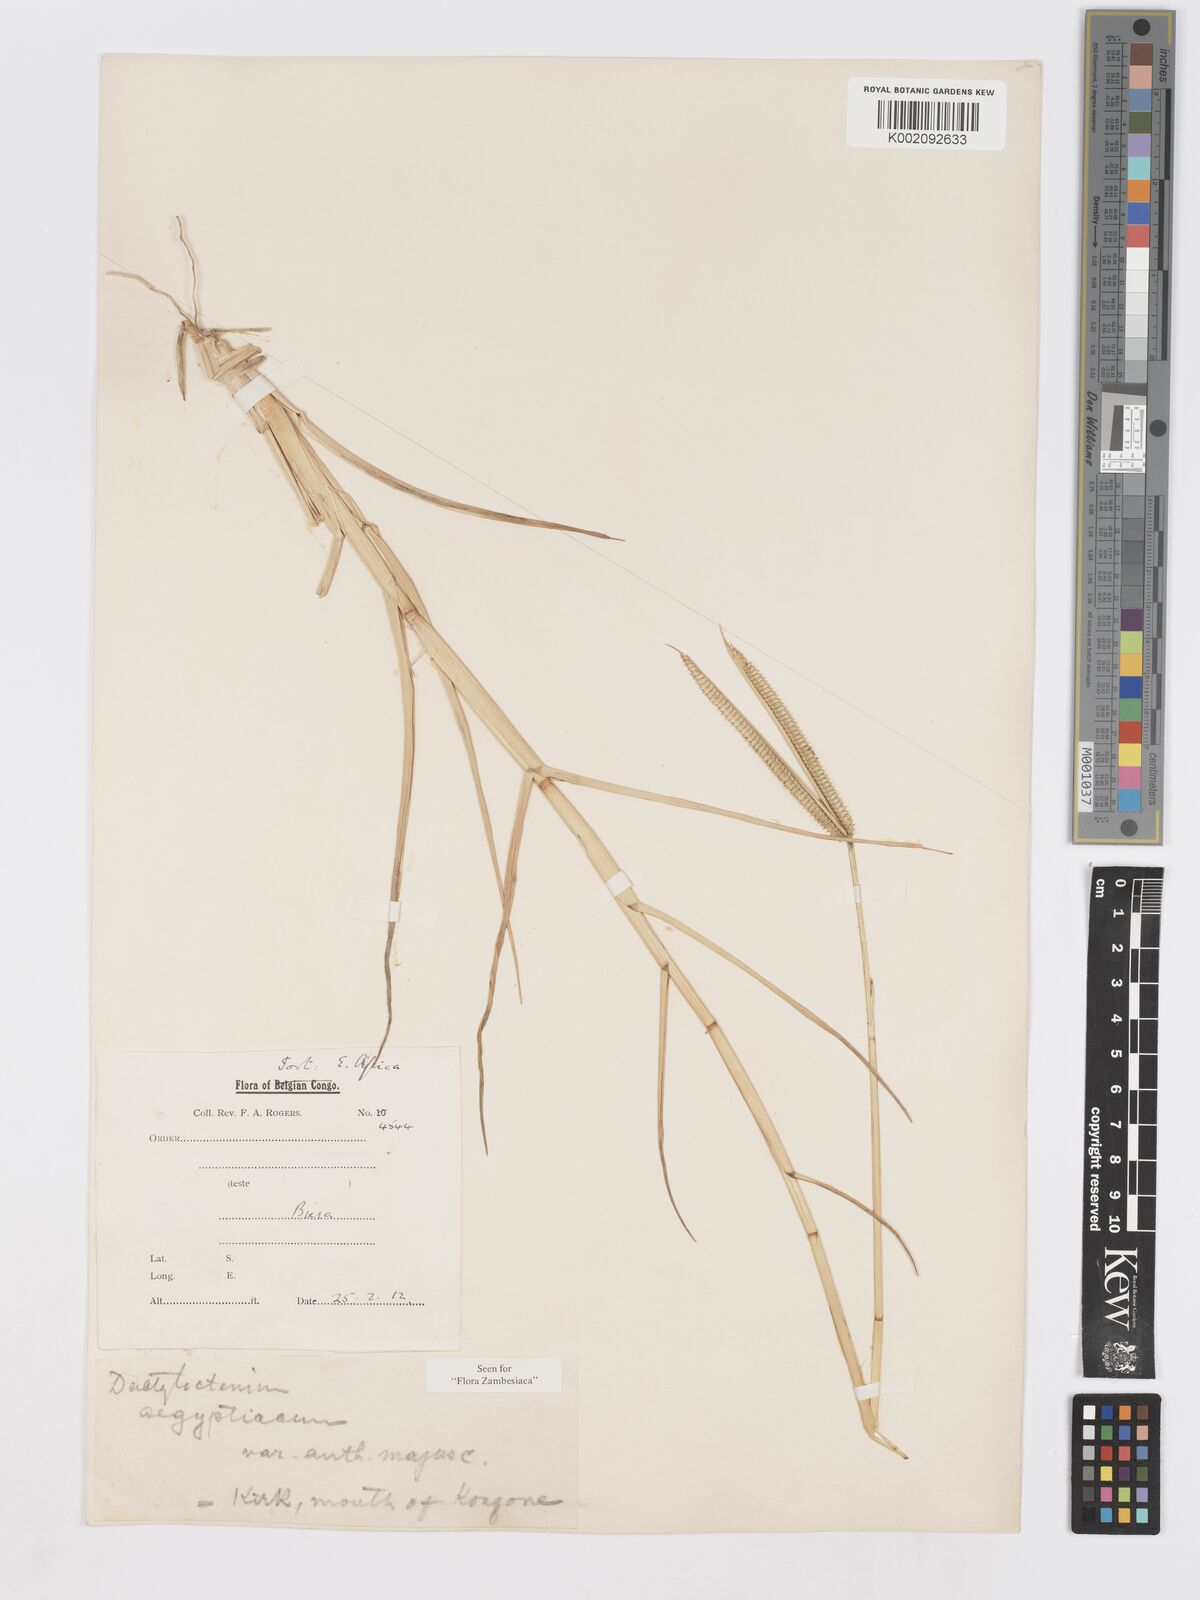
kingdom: Plantae
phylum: Tracheophyta
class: Liliopsida
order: Poales
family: Poaceae
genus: Dactyloctenium
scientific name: Dactyloctenium geminatum
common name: Crowsfoot grass
